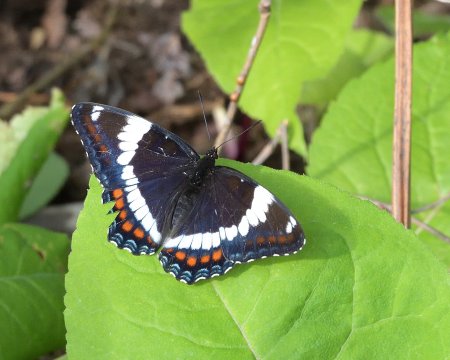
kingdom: Animalia
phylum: Arthropoda
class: Insecta
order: Lepidoptera
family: Nymphalidae
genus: Limenitis
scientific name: Limenitis arthemis
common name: Red-spotted Admiral
